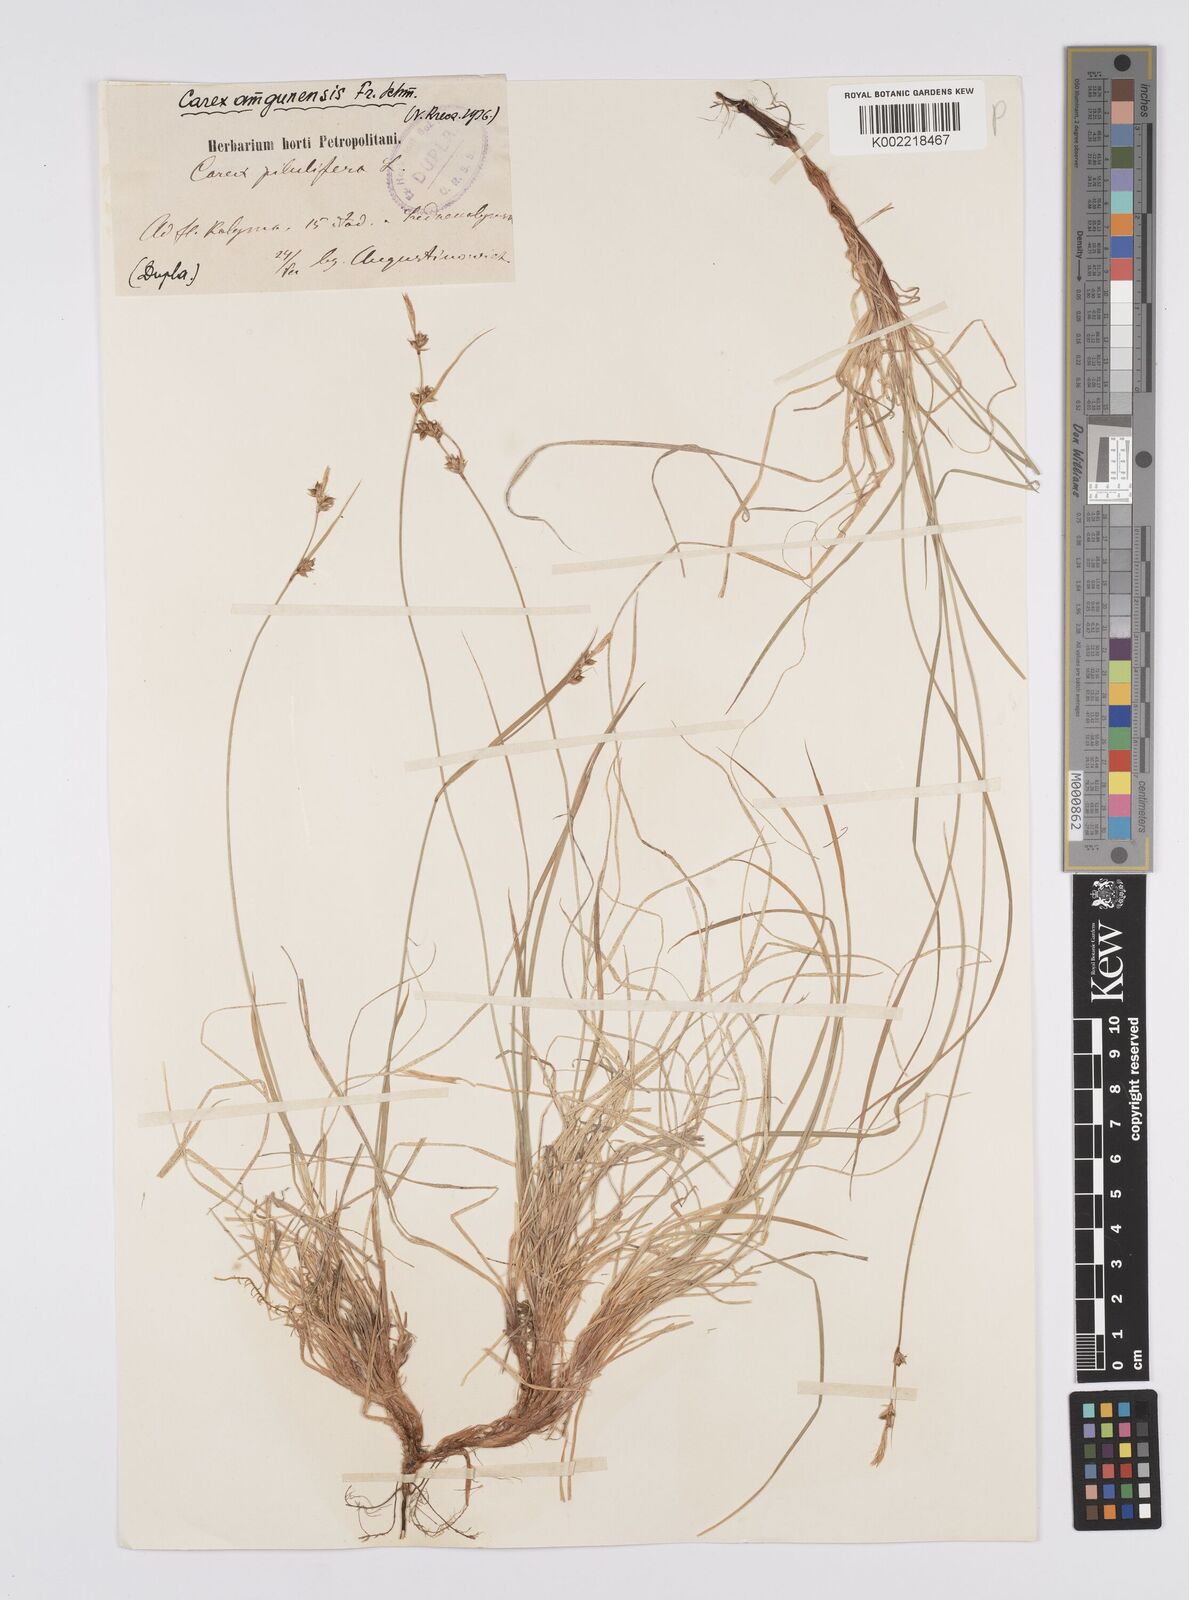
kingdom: Plantae
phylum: Tracheophyta
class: Liliopsida
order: Poales
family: Cyperaceae
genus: Carex
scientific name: Carex amgunensis
